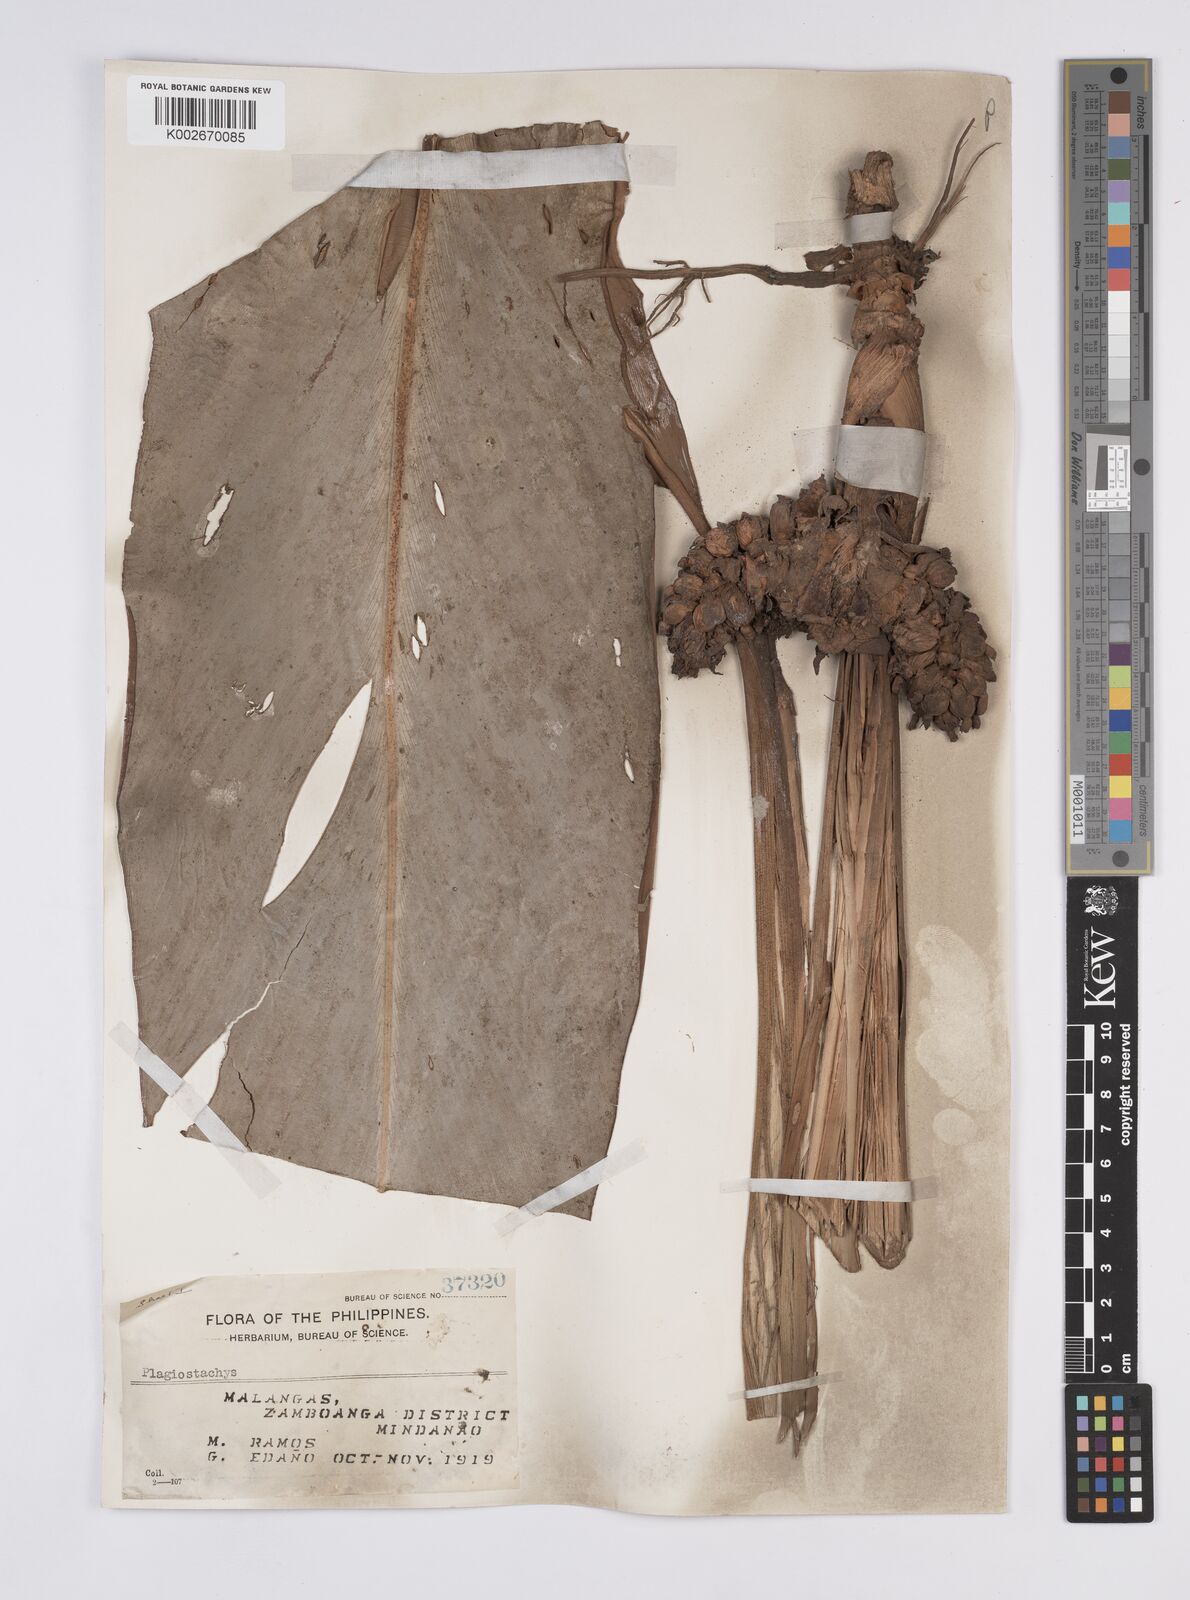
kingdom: Plantae
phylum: Tracheophyta
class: Liliopsida
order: Zingiberales
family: Zingiberaceae
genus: Plagiostachys
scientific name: Plagiostachys
